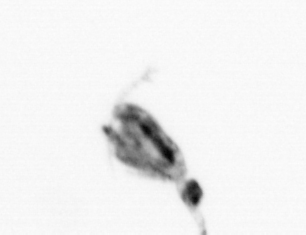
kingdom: Animalia
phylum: Arthropoda
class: Copepoda
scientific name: Copepoda
